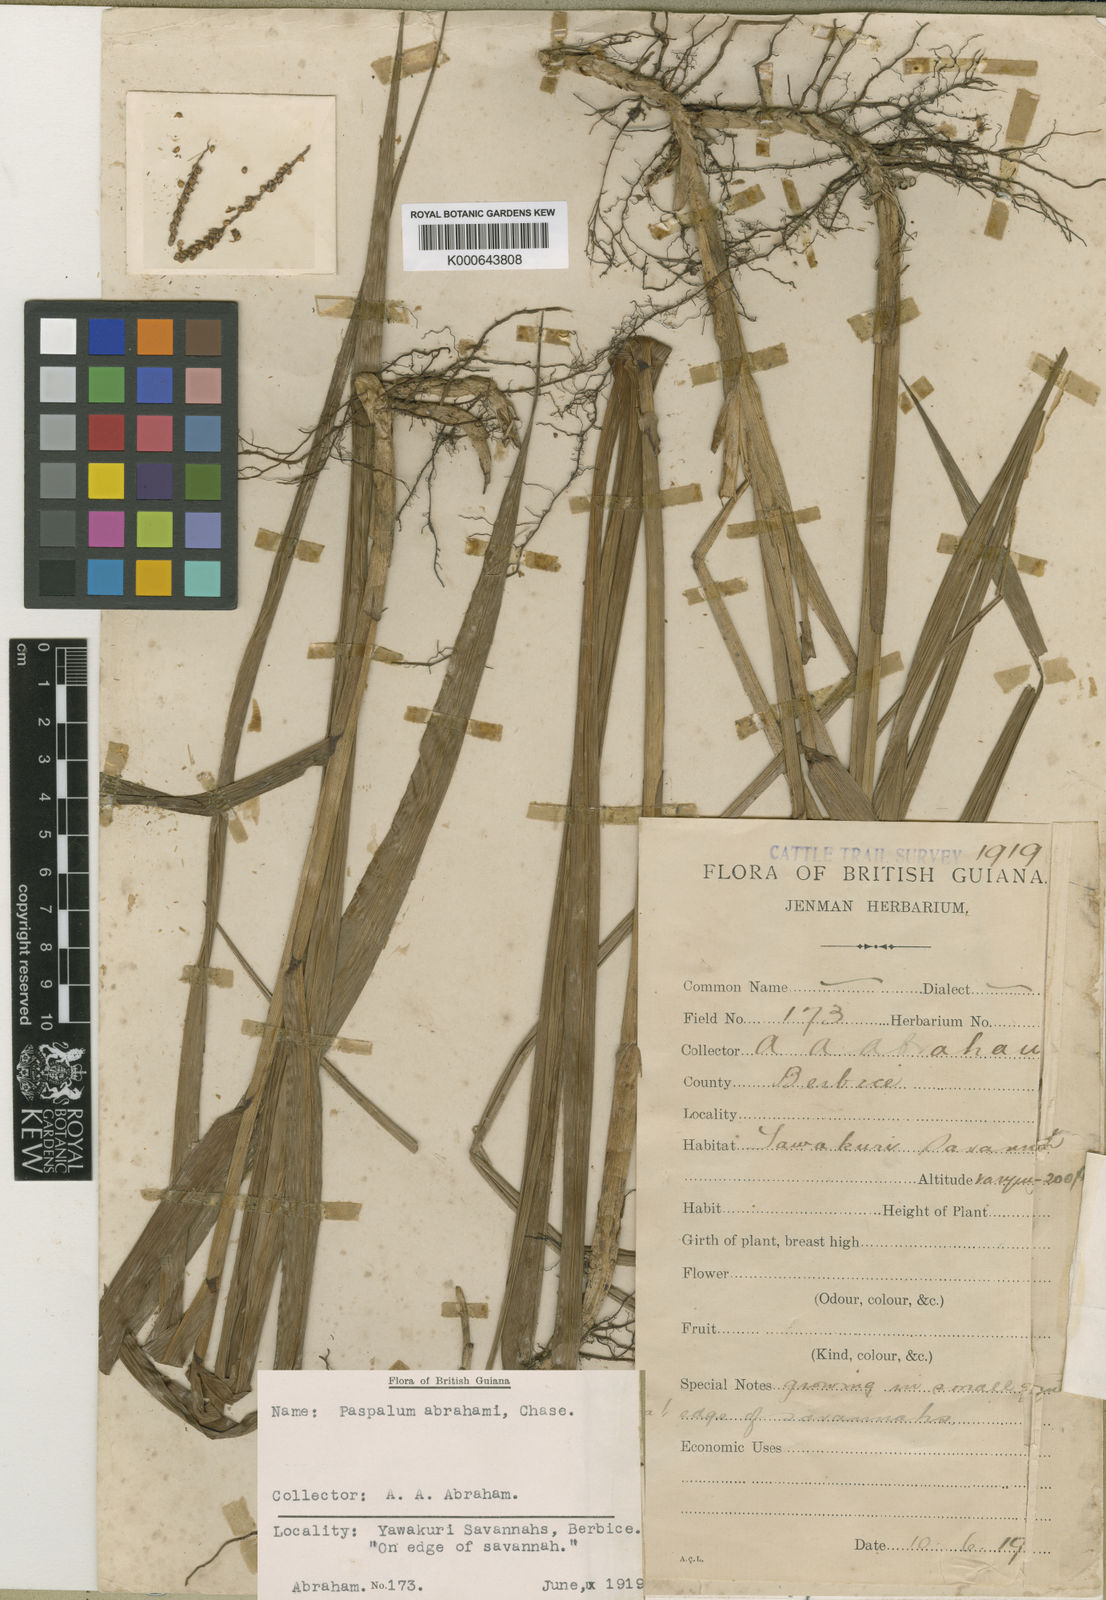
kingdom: Plantae
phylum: Tracheophyta
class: Liliopsida
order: Poales
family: Poaceae
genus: Paspalum
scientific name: Paspalum maritimum
